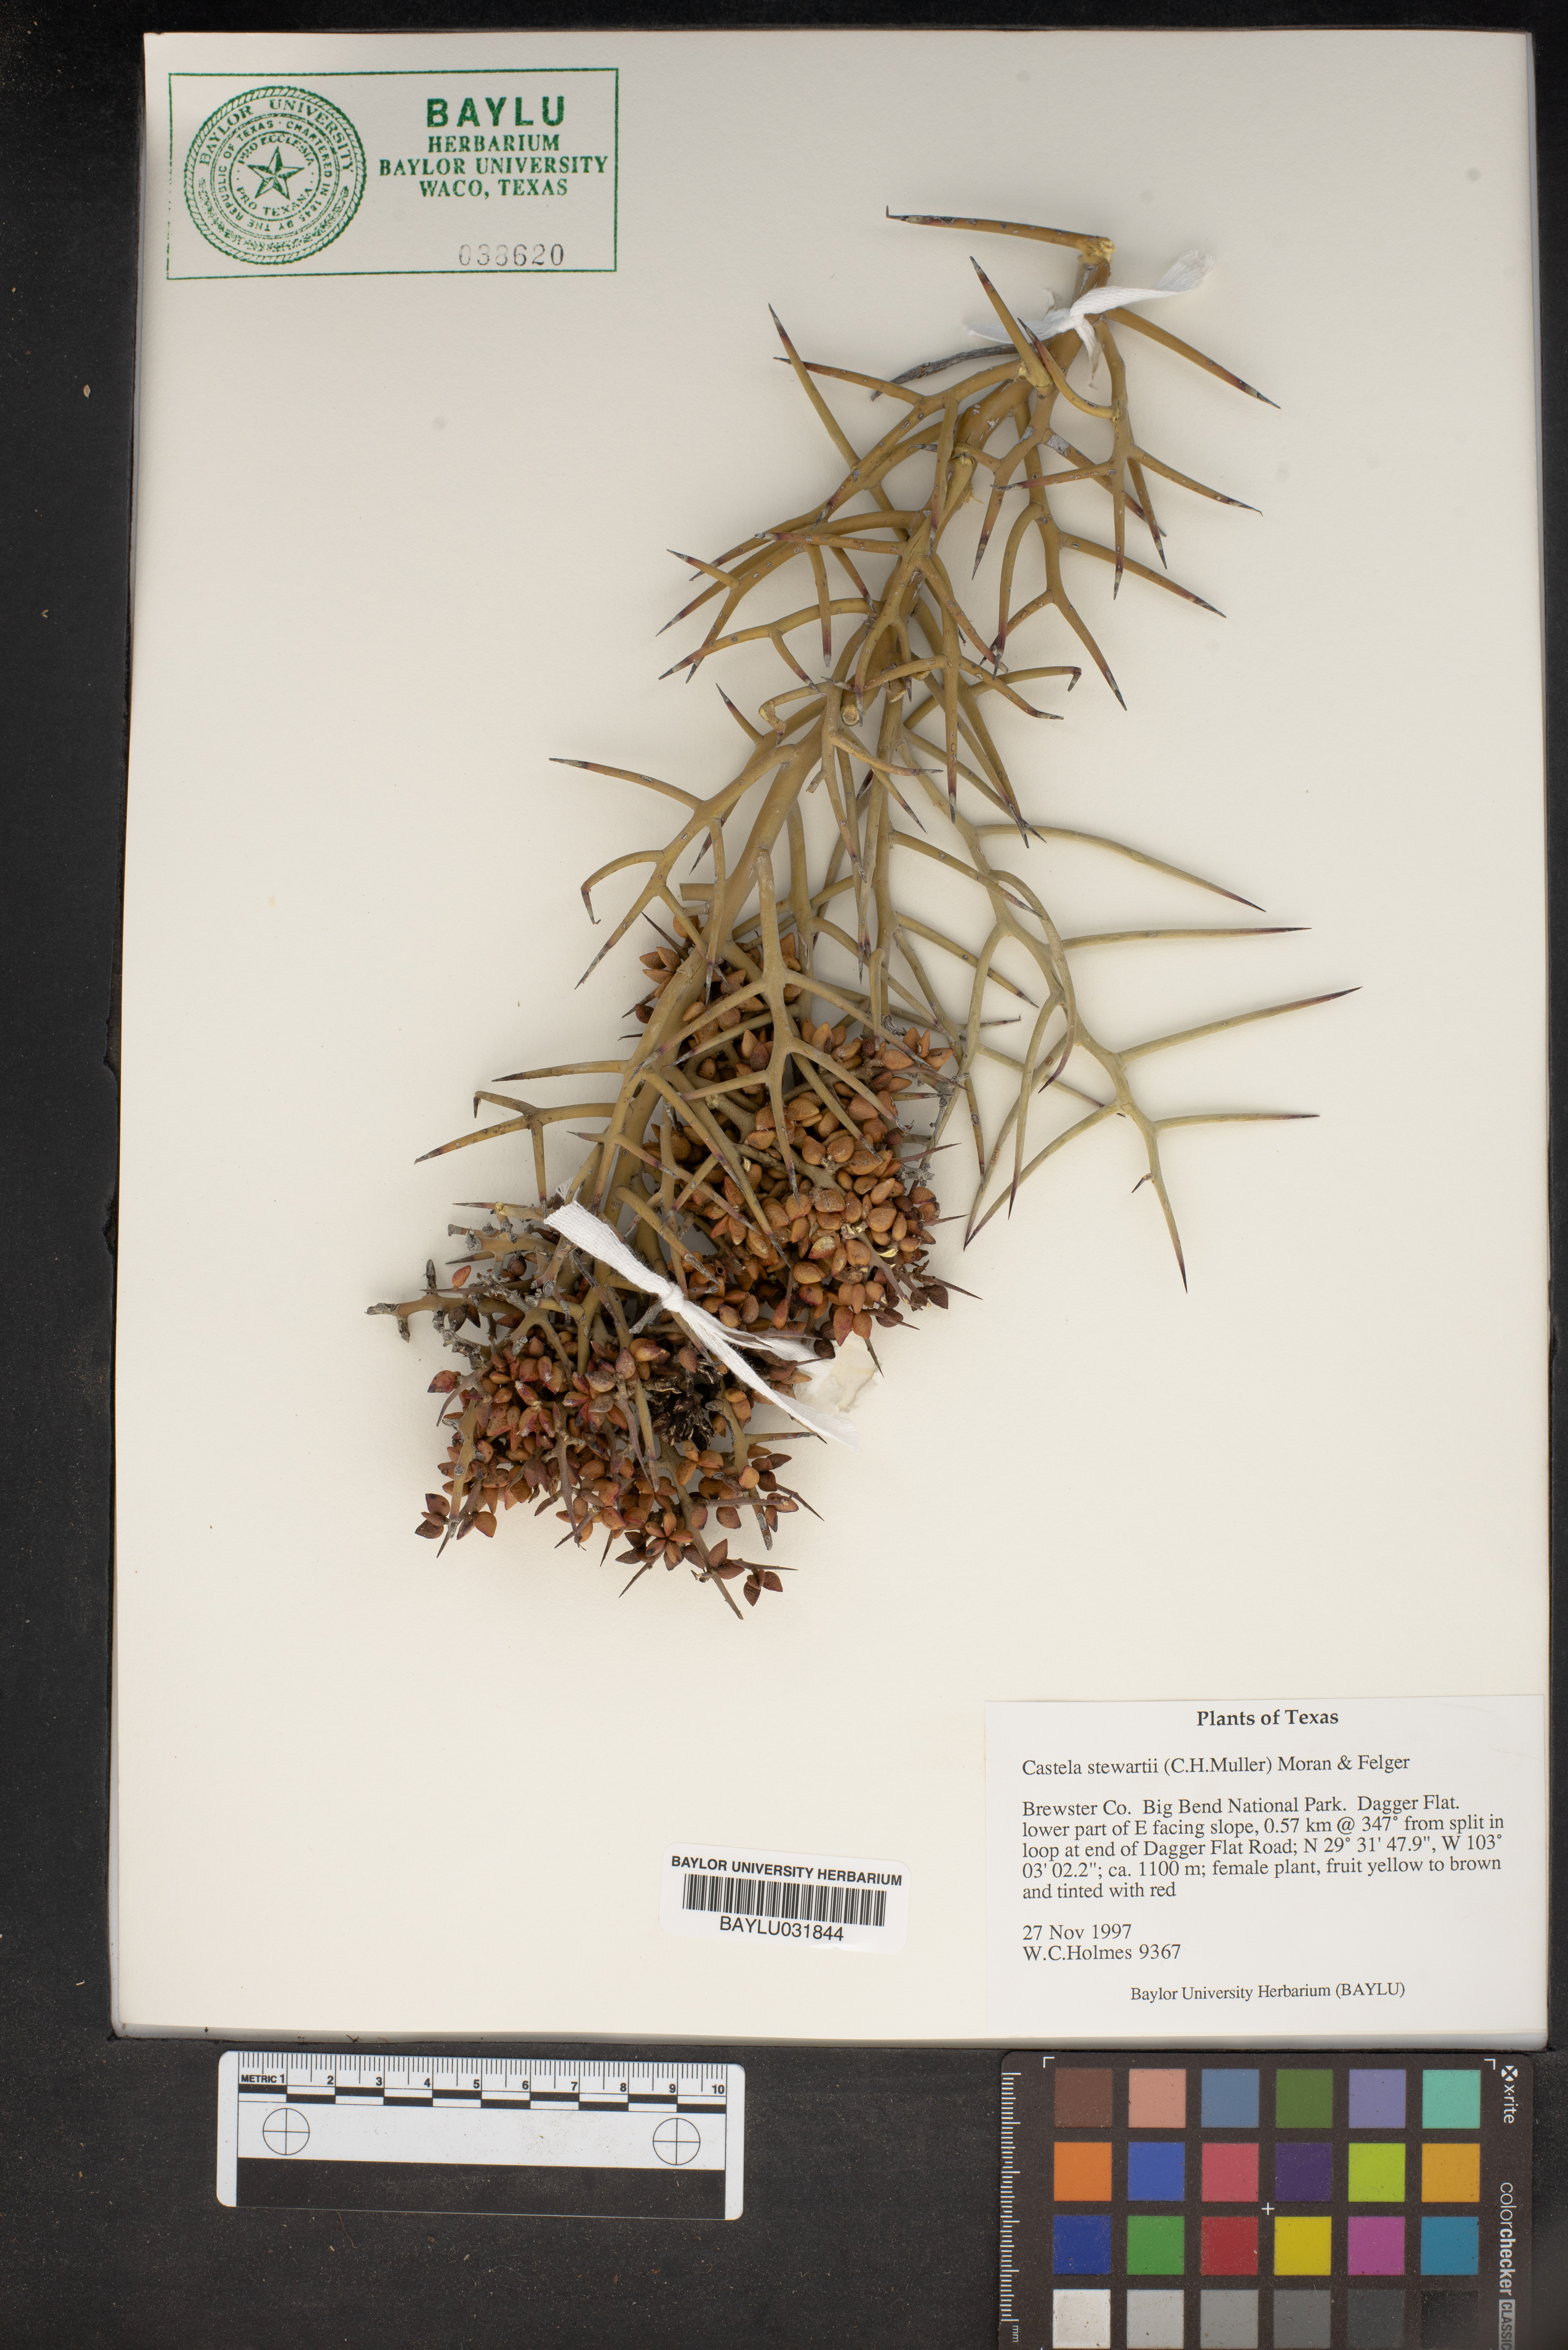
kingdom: Plantae
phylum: Tracheophyta
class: Magnoliopsida
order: Sapindales
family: Simaroubaceae
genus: Holacantha
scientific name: Holacantha stewartii
